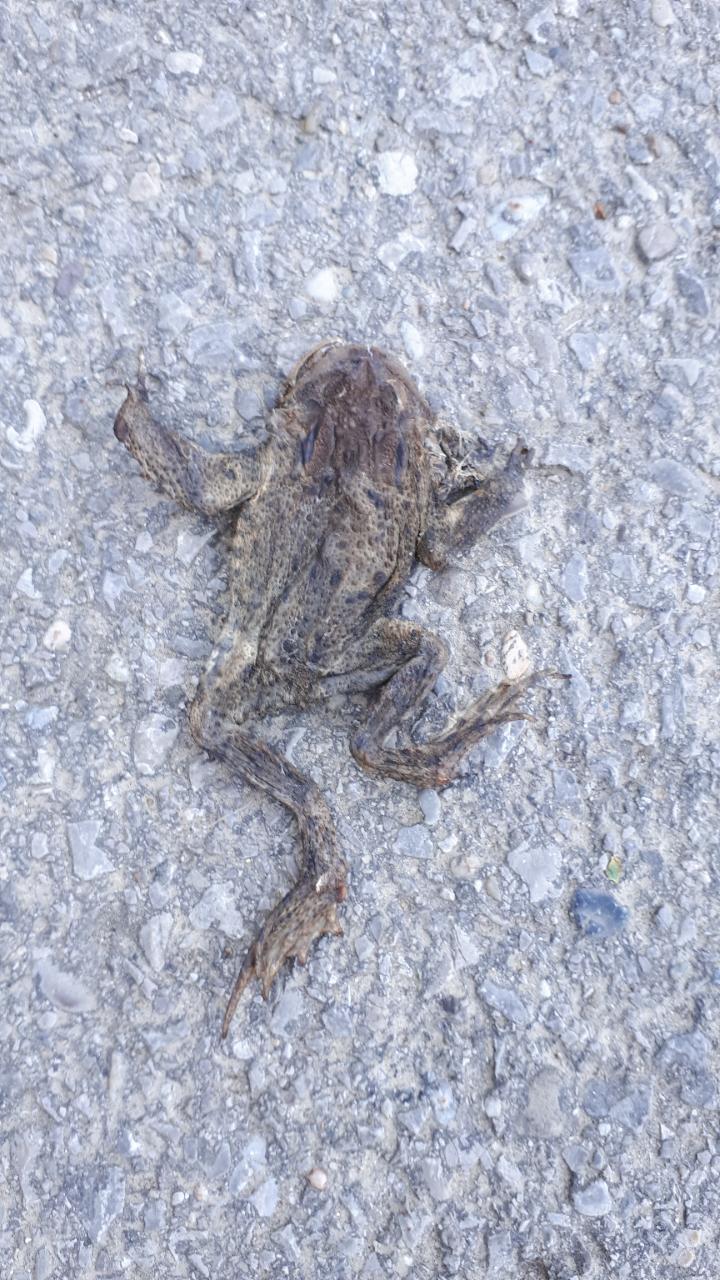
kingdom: Animalia
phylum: Chordata
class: Amphibia
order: Anura
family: Bufonidae
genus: Bufo
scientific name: Bufo bufo
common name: Common toad
